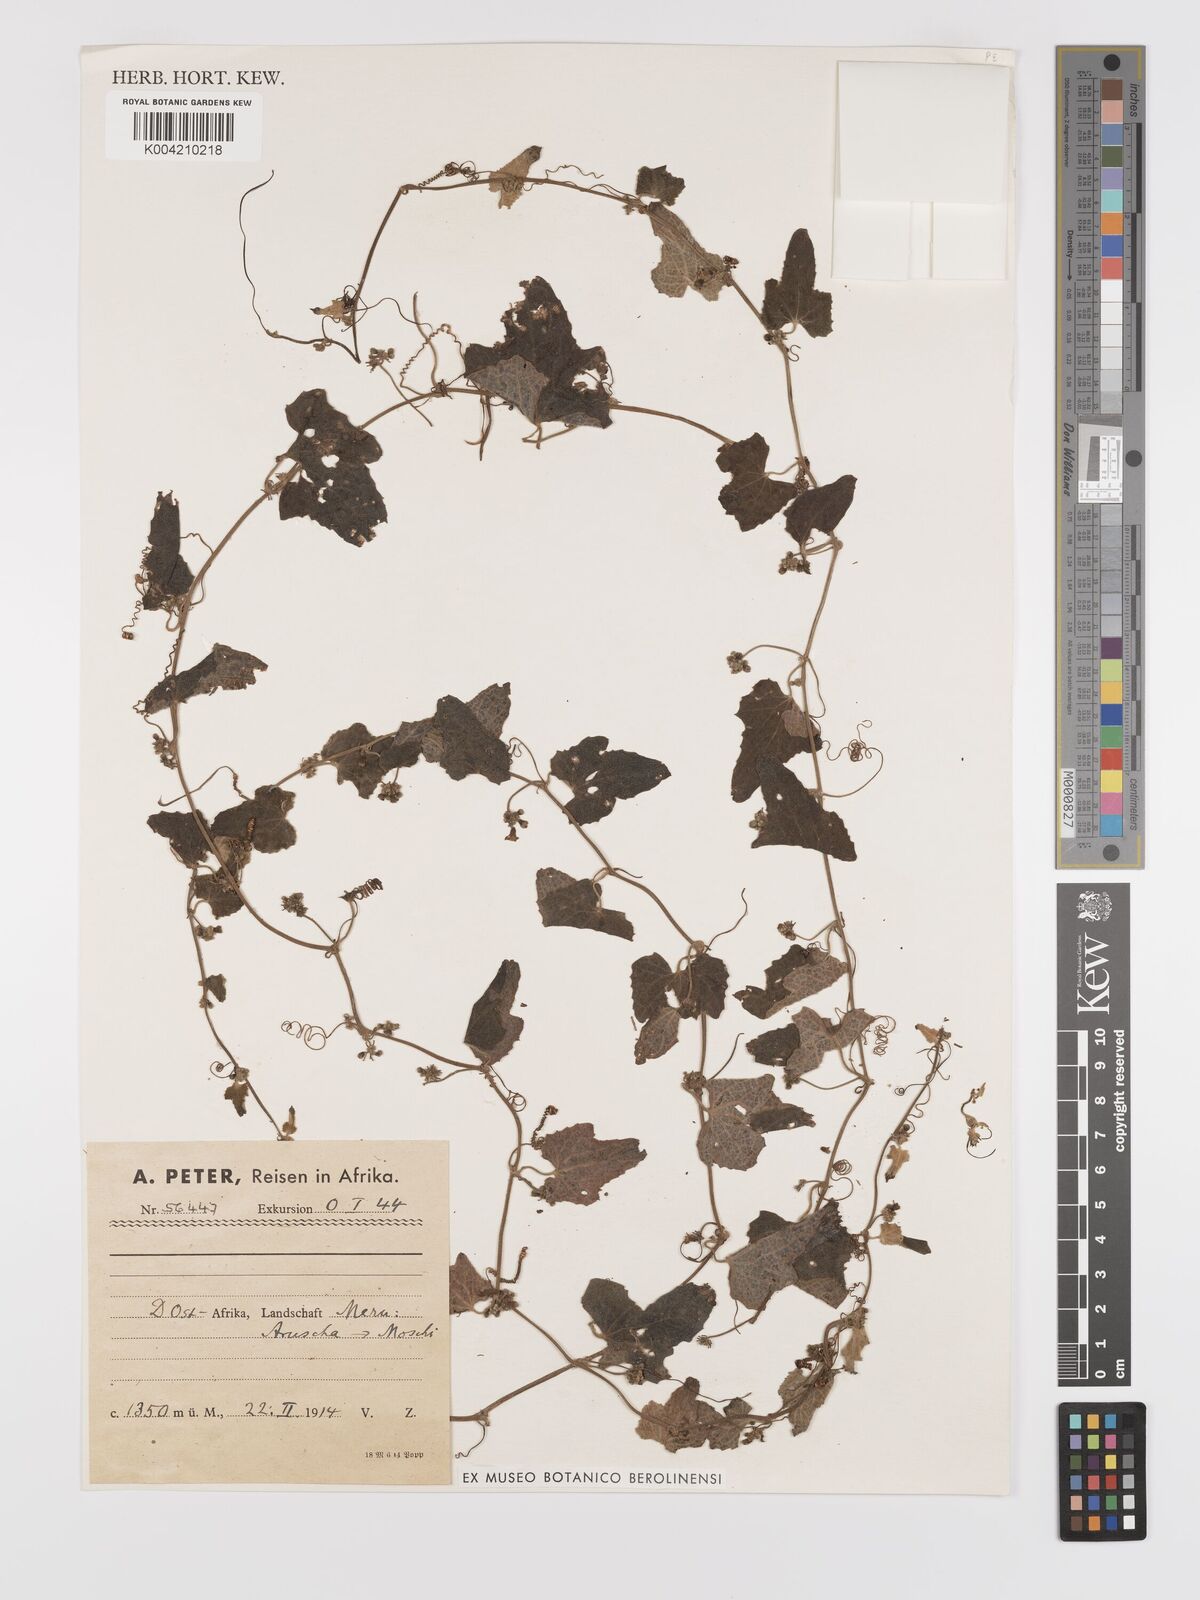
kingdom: Plantae
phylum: Tracheophyta
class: Magnoliopsida
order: Cucurbitales
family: Cucurbitaceae
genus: Zehneria
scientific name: Zehneria scabra
